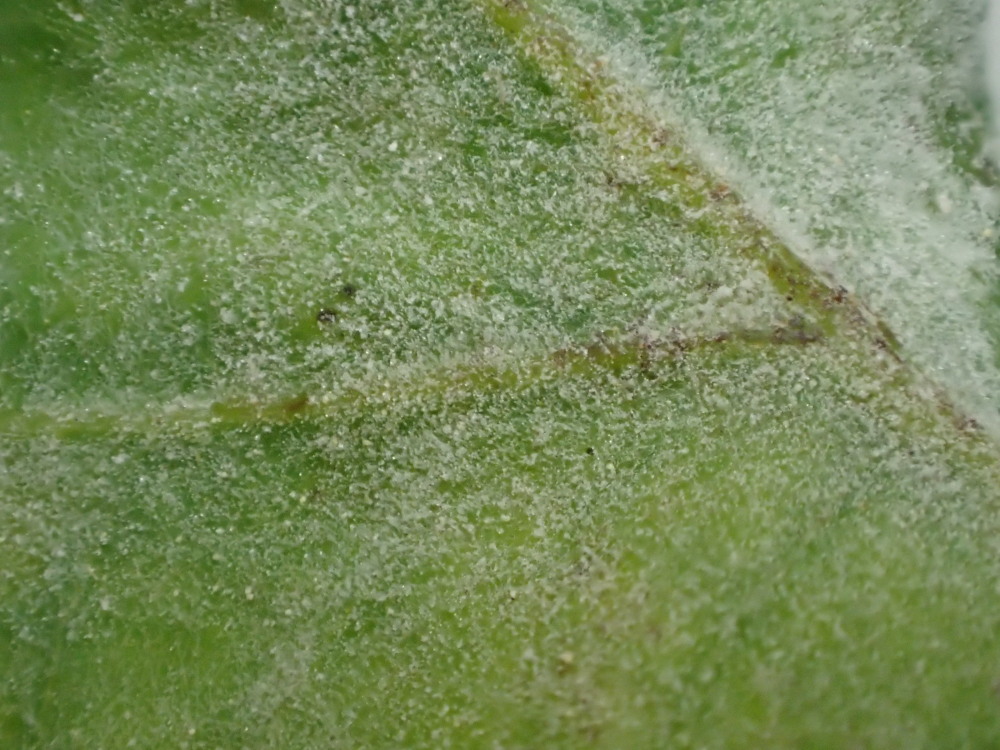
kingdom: Fungi
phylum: Ascomycota
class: Leotiomycetes
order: Helotiales
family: Erysiphaceae
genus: Erysiphe
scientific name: Erysiphe alphitoides
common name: ege-meldug
